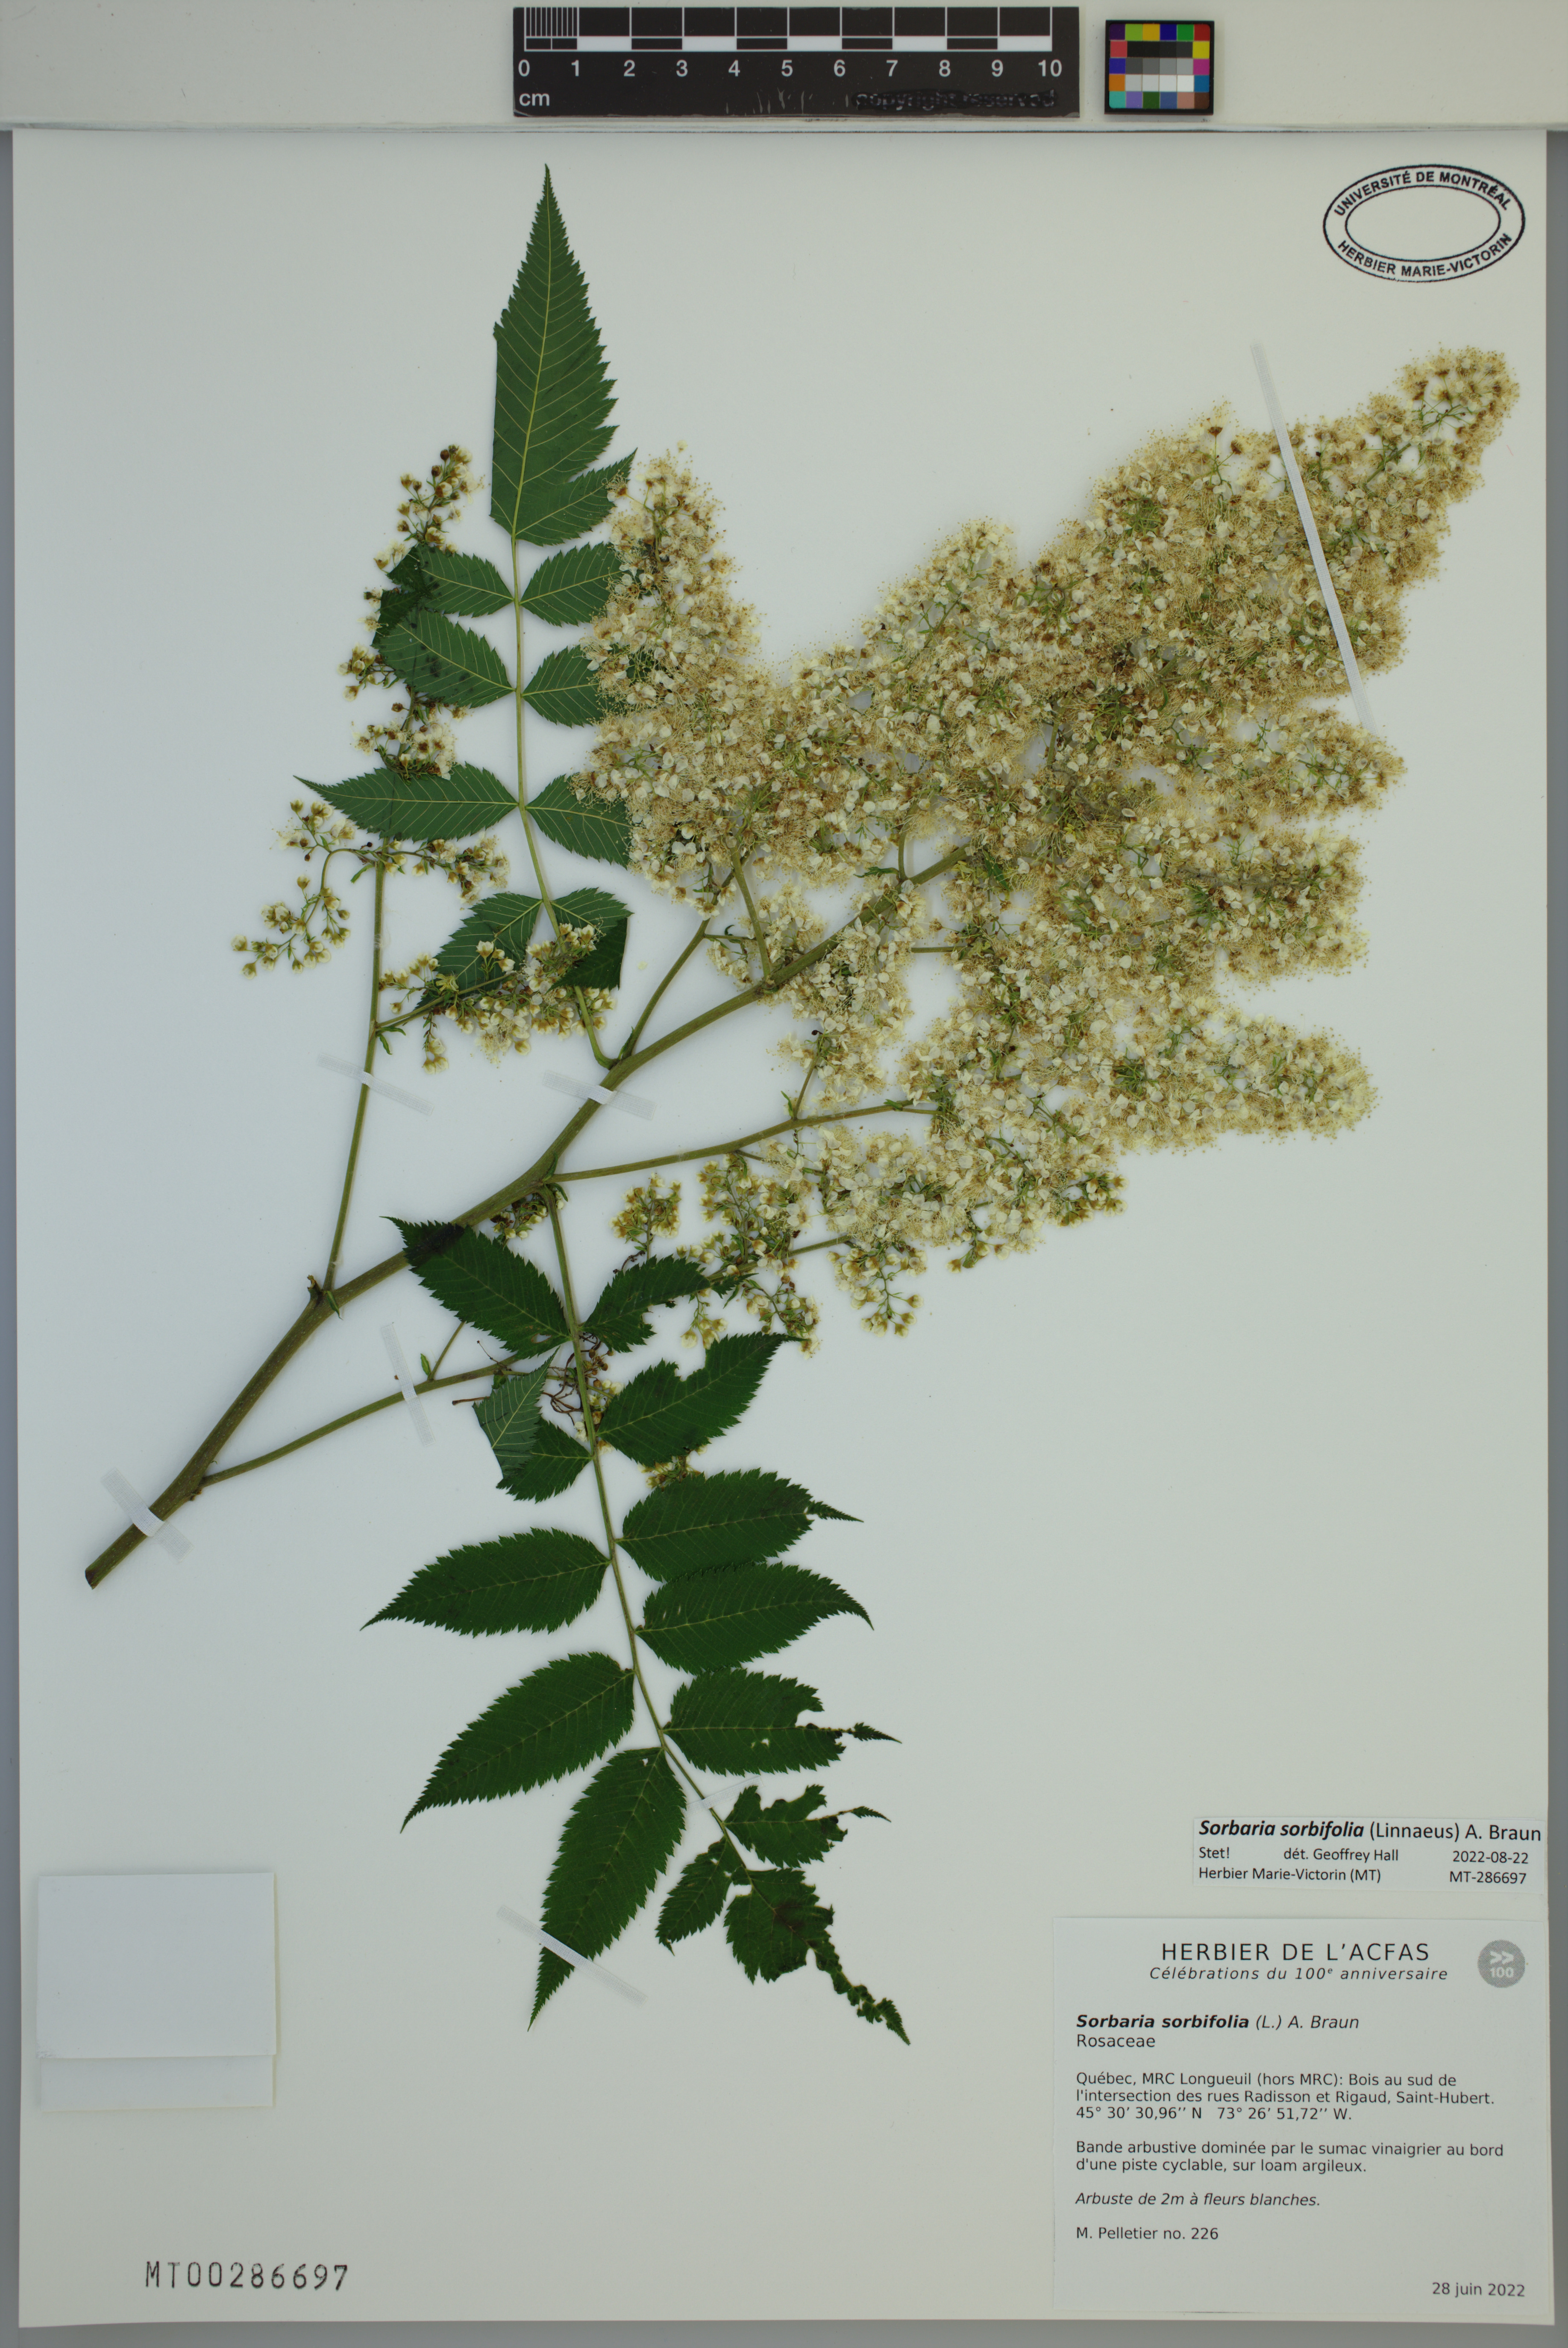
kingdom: Plantae
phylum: Tracheophyta
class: Magnoliopsida
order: Rosales
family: Rosaceae
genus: Sorbaria
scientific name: Sorbaria sorbifolia
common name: False spiraea
